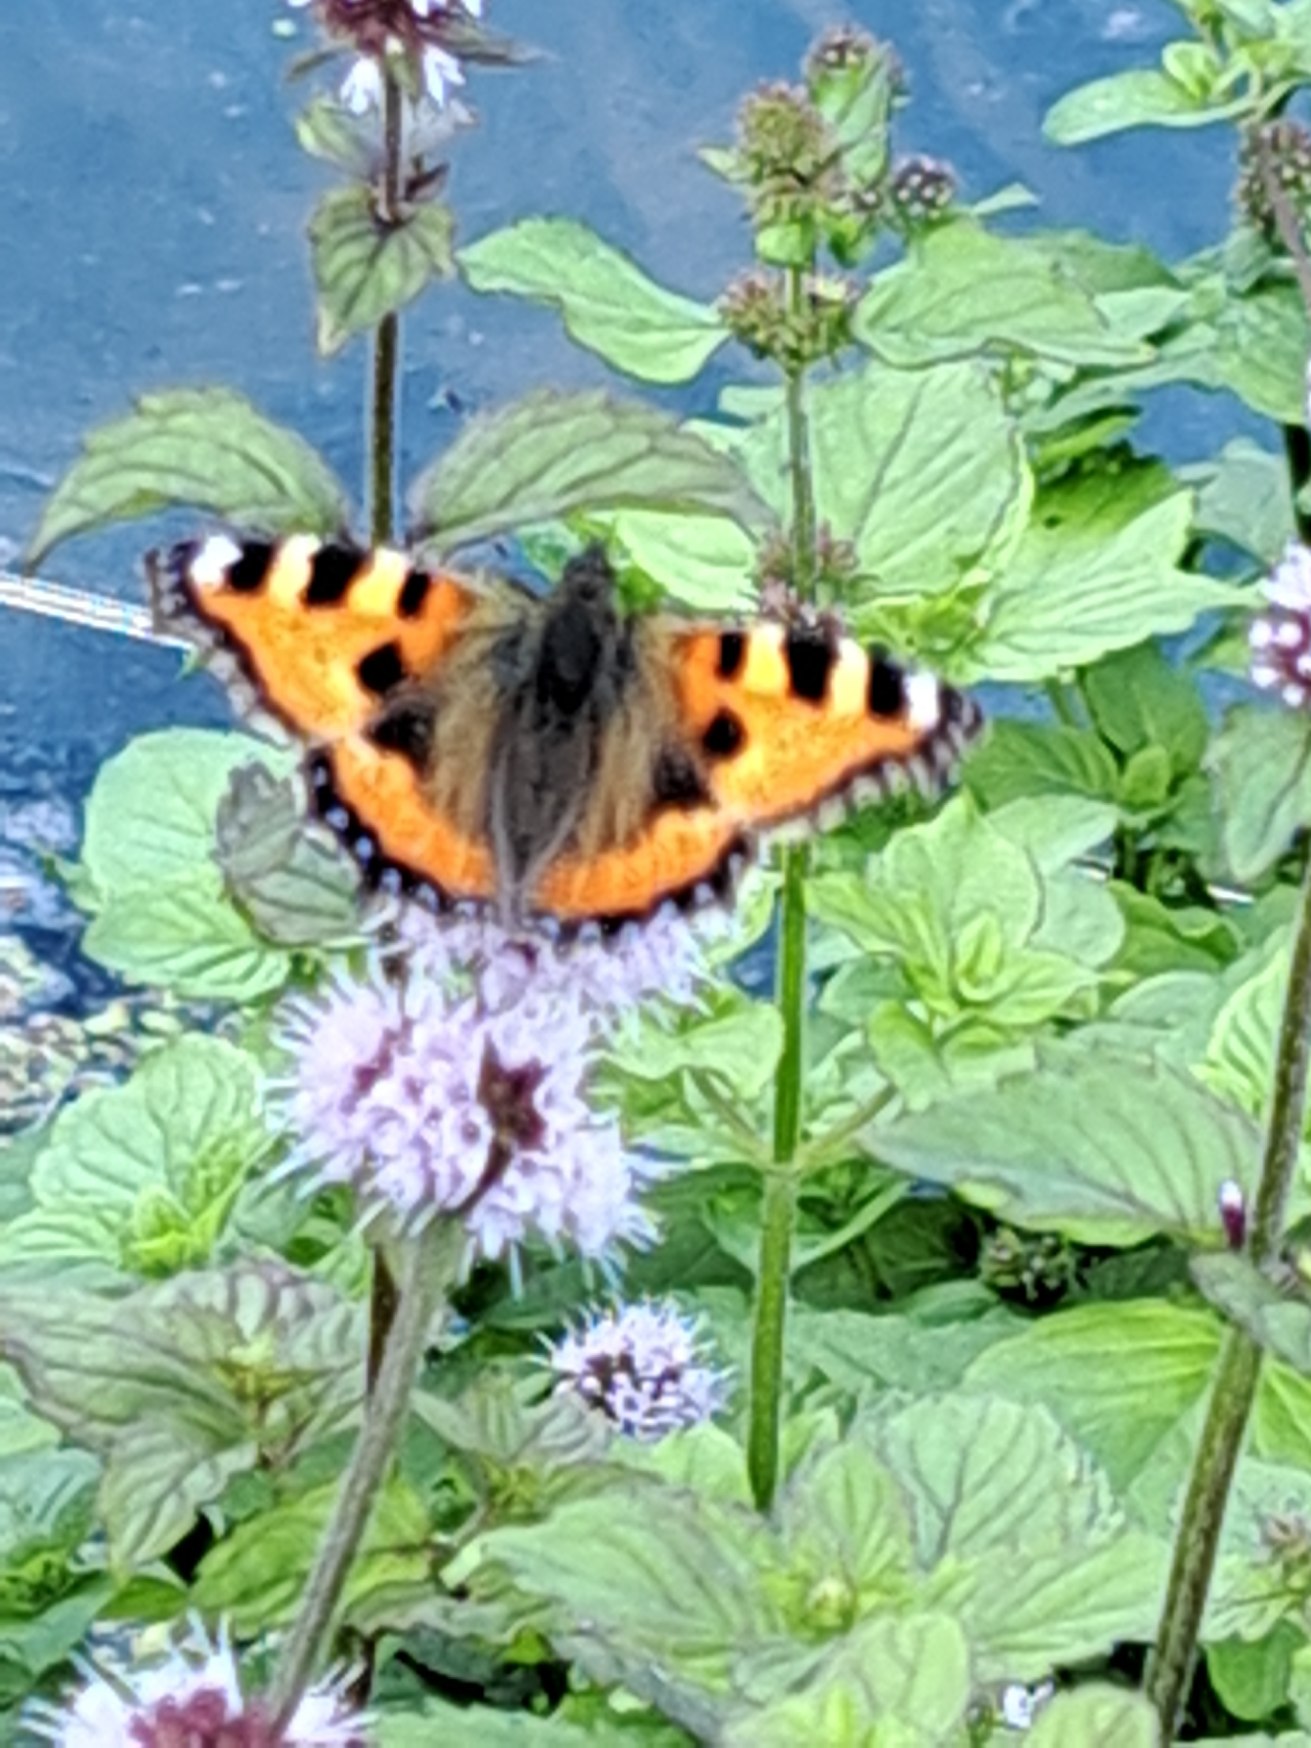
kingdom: Animalia
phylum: Arthropoda
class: Insecta
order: Lepidoptera
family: Nymphalidae
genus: Aglais
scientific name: Aglais urticae
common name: Nældens takvinge
